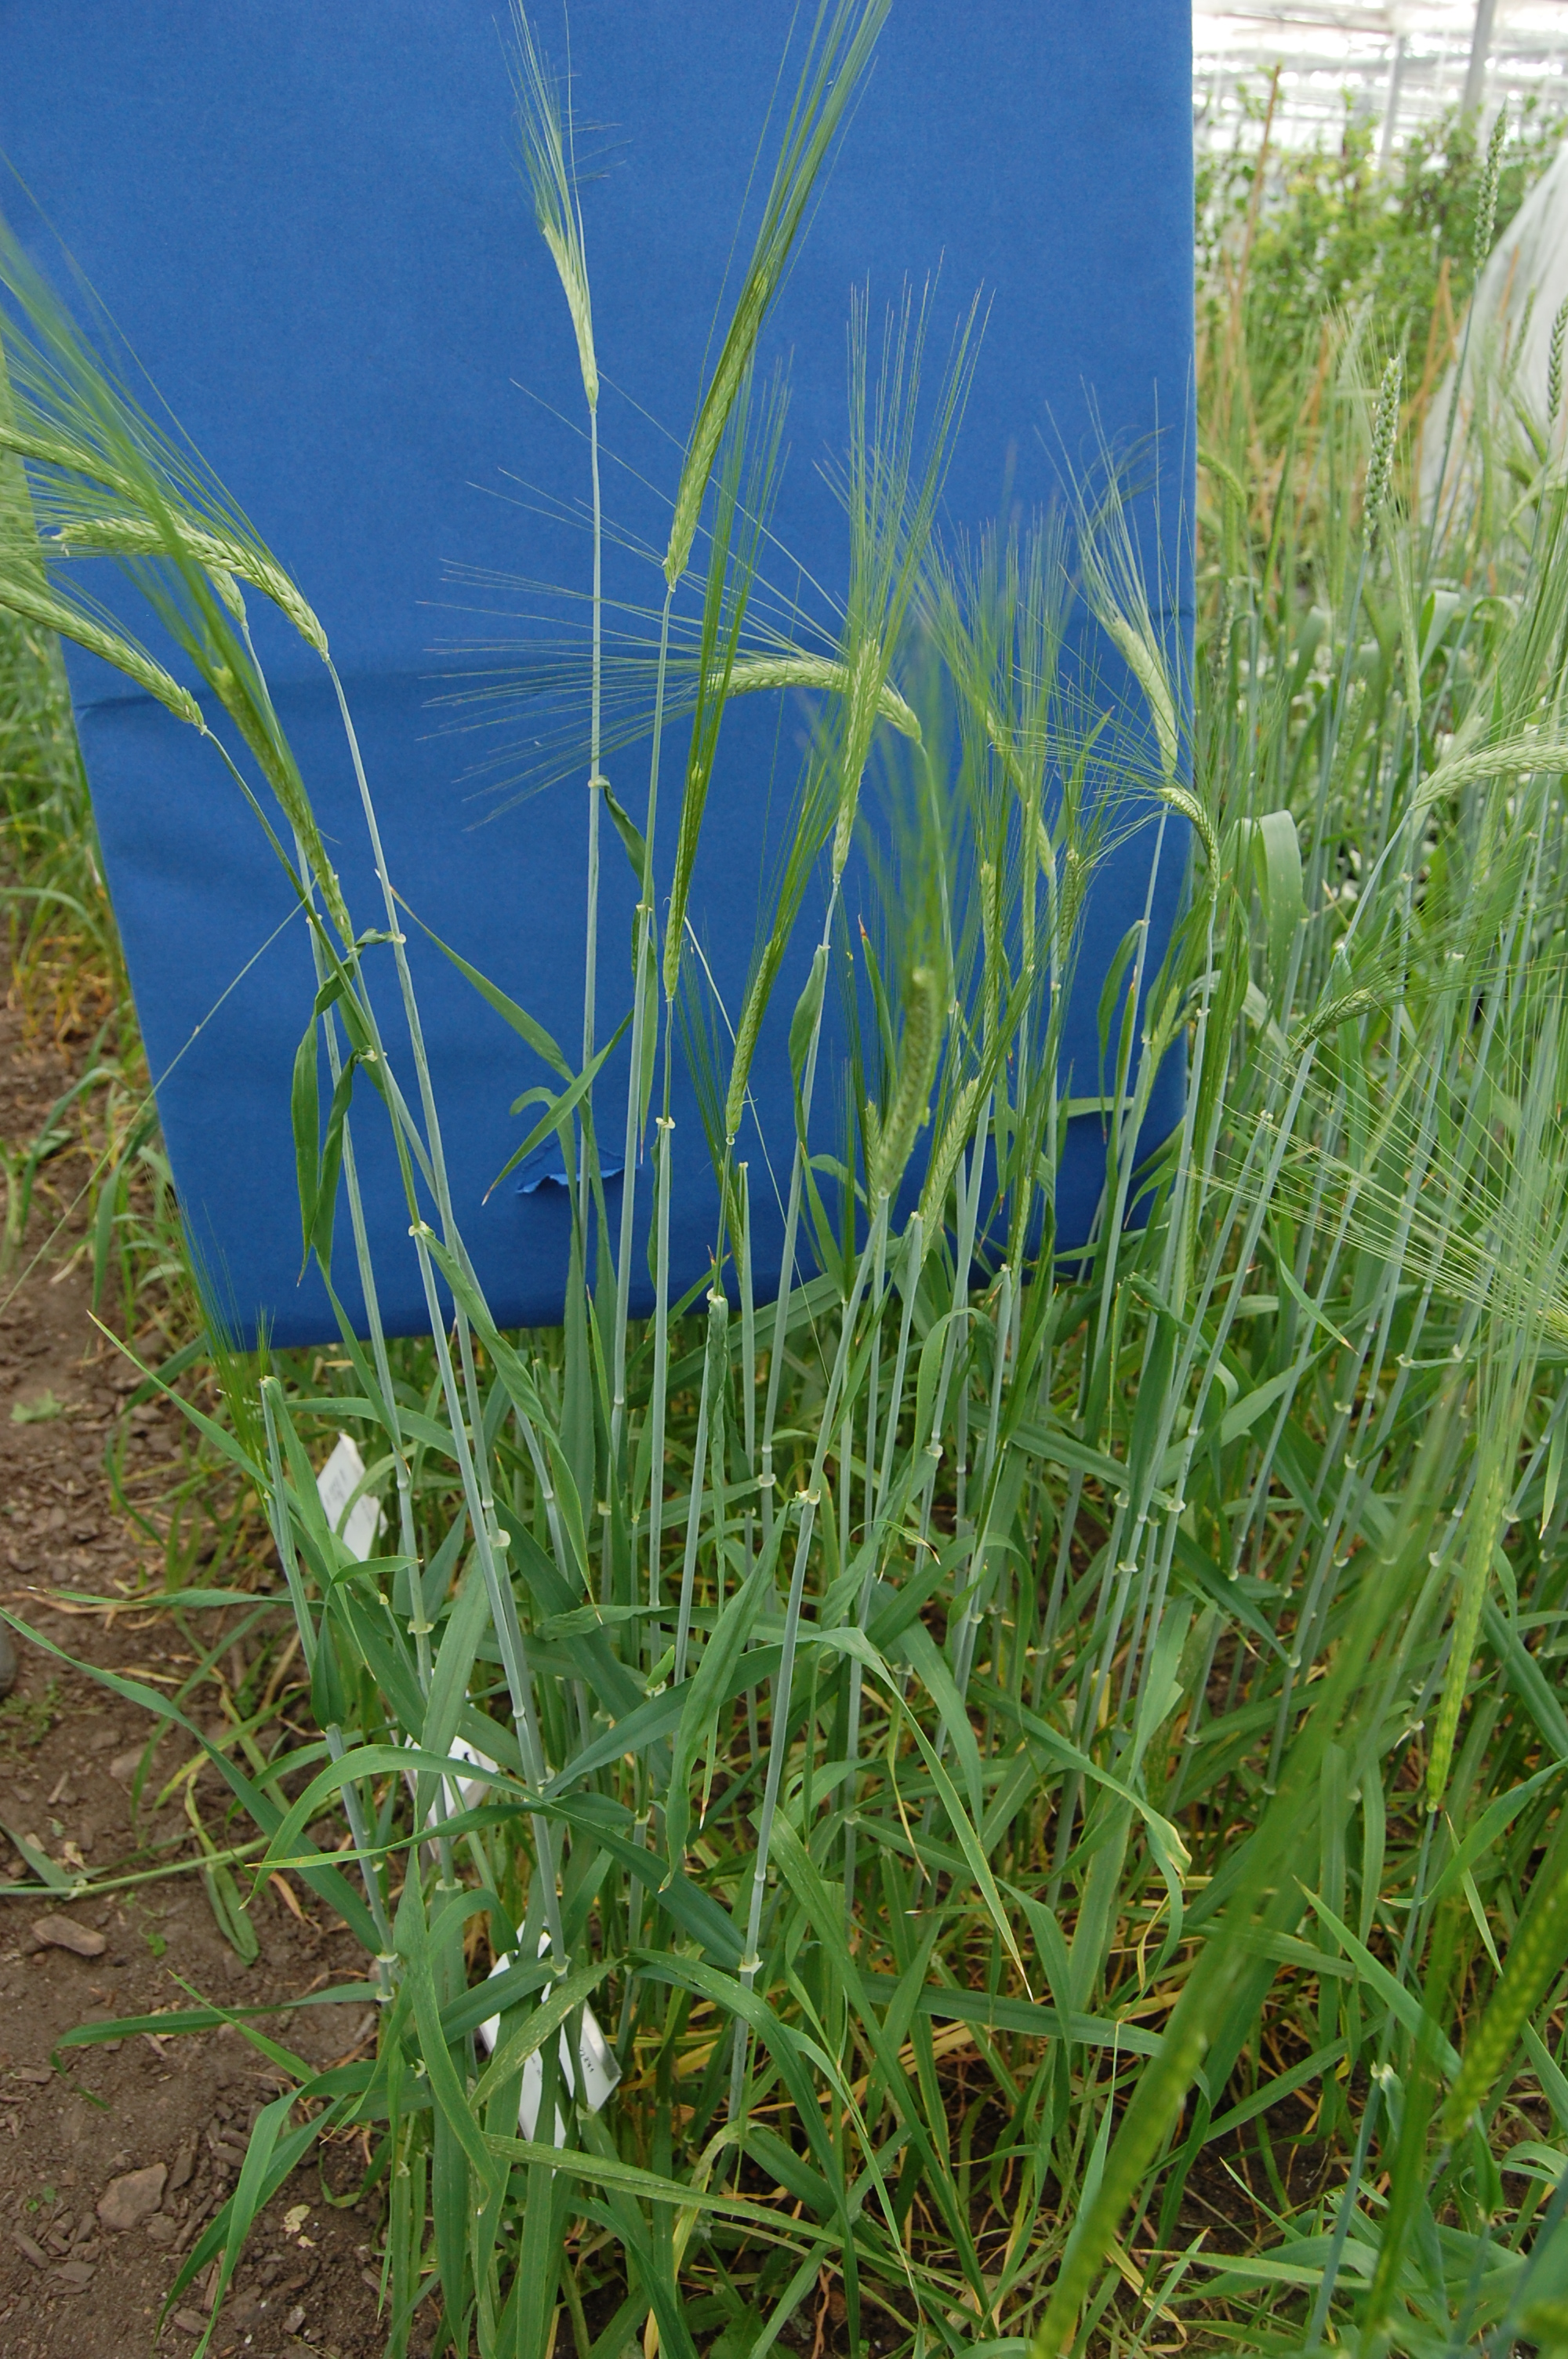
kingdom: Plantae
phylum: Tracheophyta
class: Liliopsida
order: Poales
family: Poaceae
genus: Hordeum
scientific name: Hordeum vulgare
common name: Common barley
